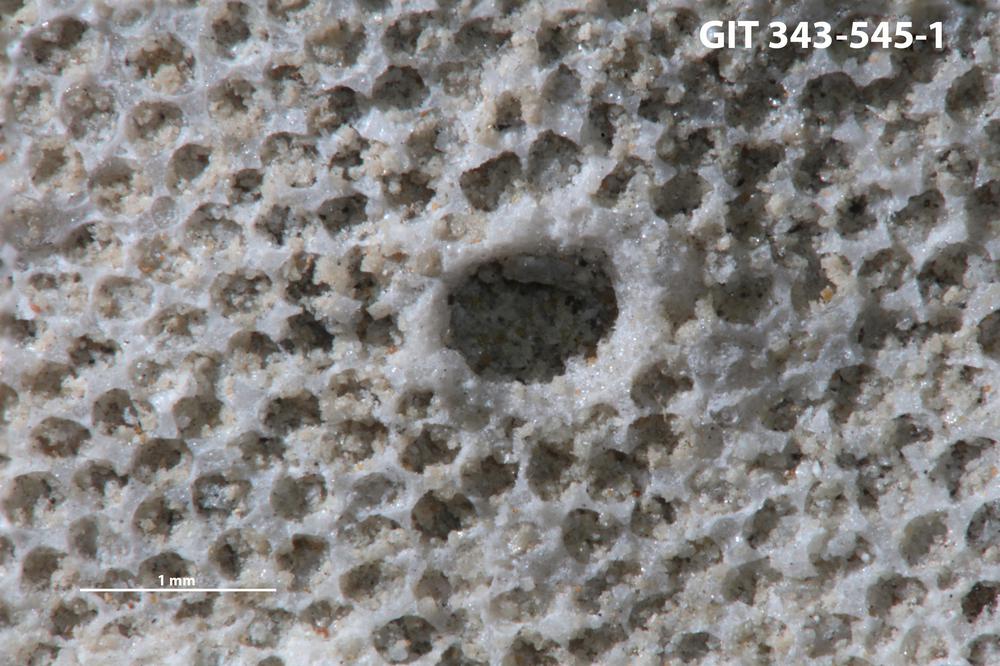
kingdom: Animalia
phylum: Annelida
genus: Anoigmaichnus
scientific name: Anoigmaichnus
